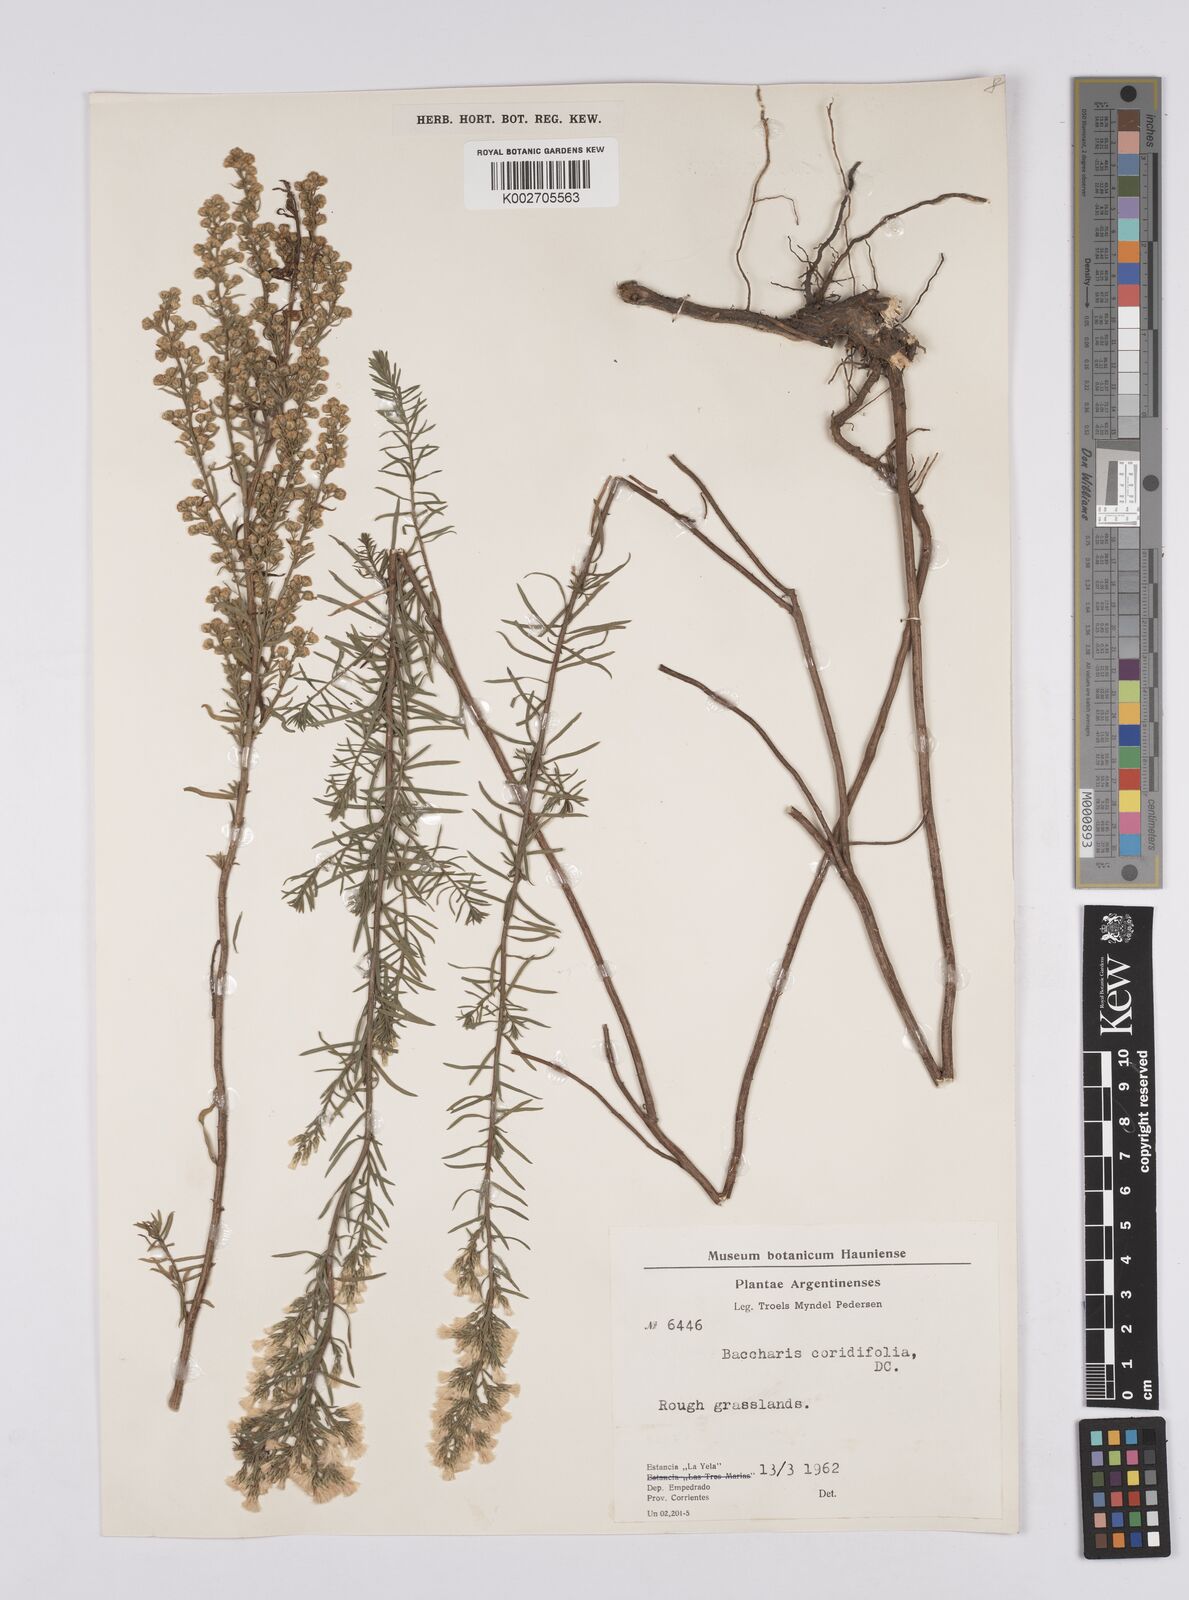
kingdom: Plantae
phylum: Tracheophyta
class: Magnoliopsida
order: Asterales
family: Asteraceae
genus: Baccharis
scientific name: Baccharis salicifolia
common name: Sticky baccharis
